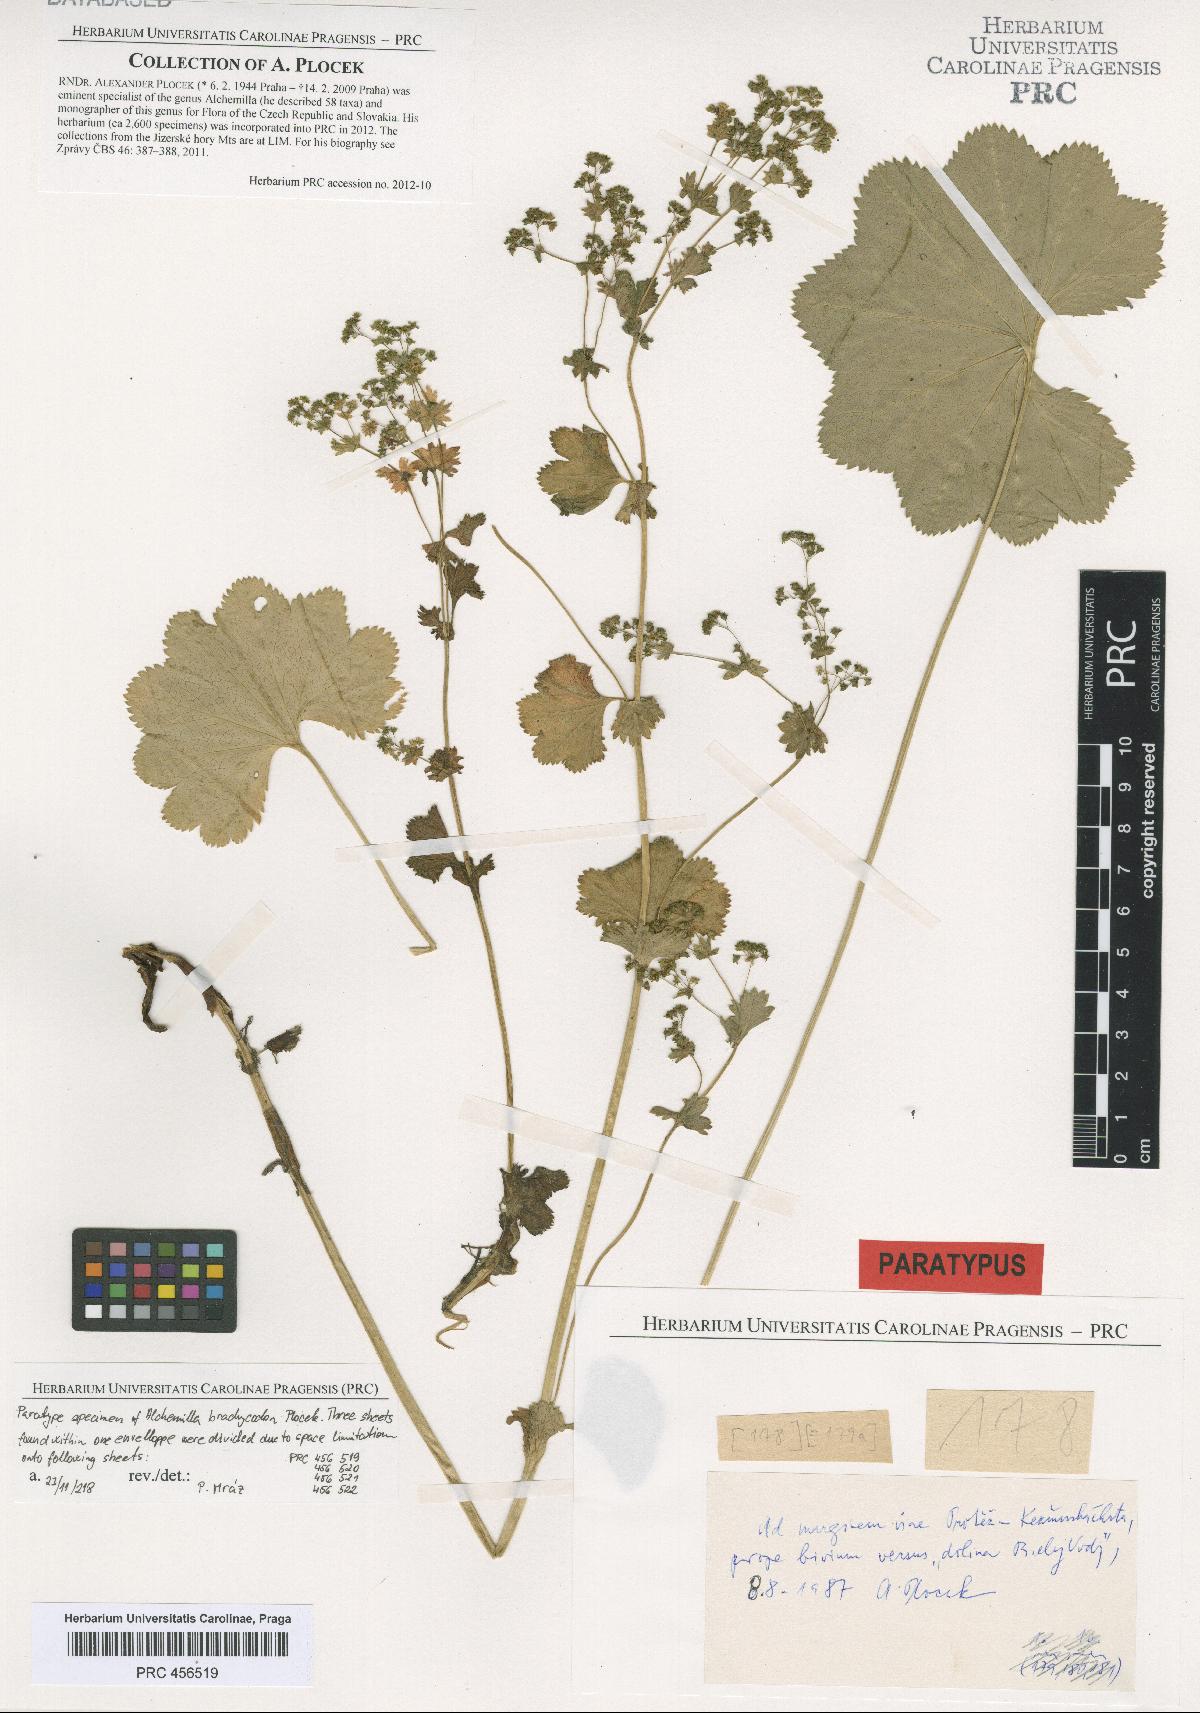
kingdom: Plantae
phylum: Tracheophyta
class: Magnoliopsida
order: Rosales
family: Rosaceae
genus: Alchemilla
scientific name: Alchemilla brachycodon
